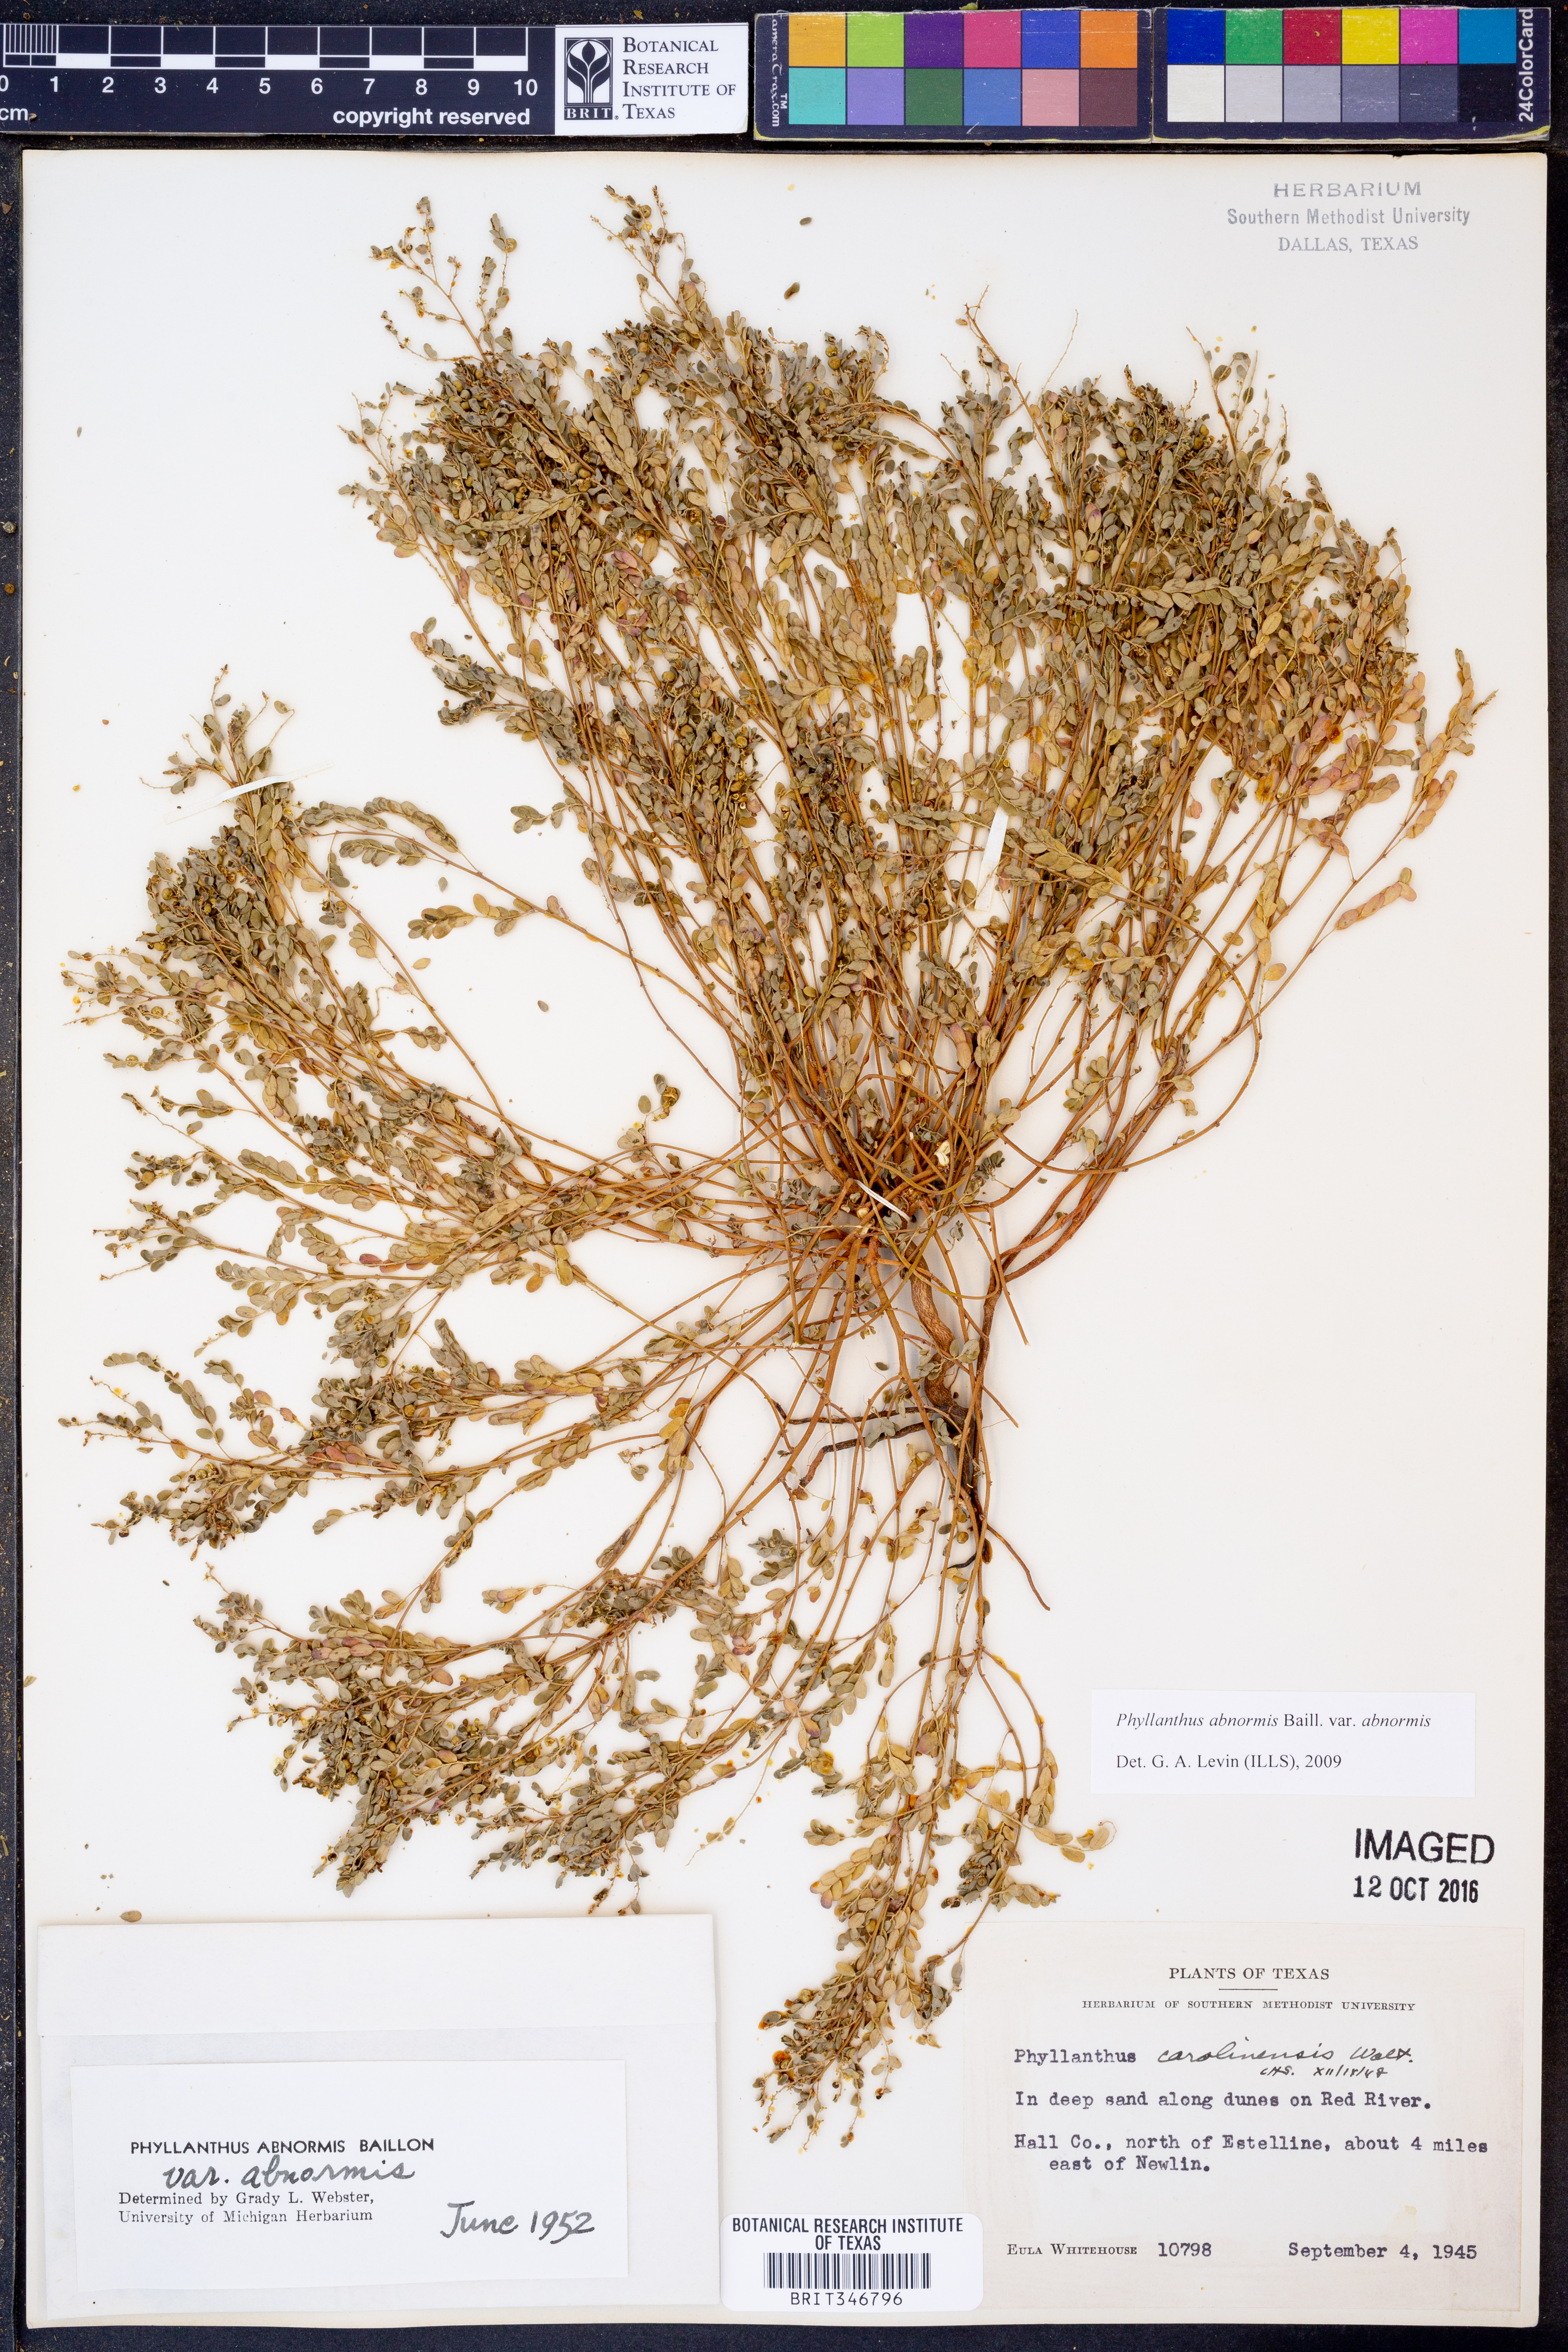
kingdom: Plantae
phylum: Tracheophyta
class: Magnoliopsida
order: Malpighiales
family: Phyllanthaceae
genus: Phyllanthus
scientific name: Phyllanthus abnormis
